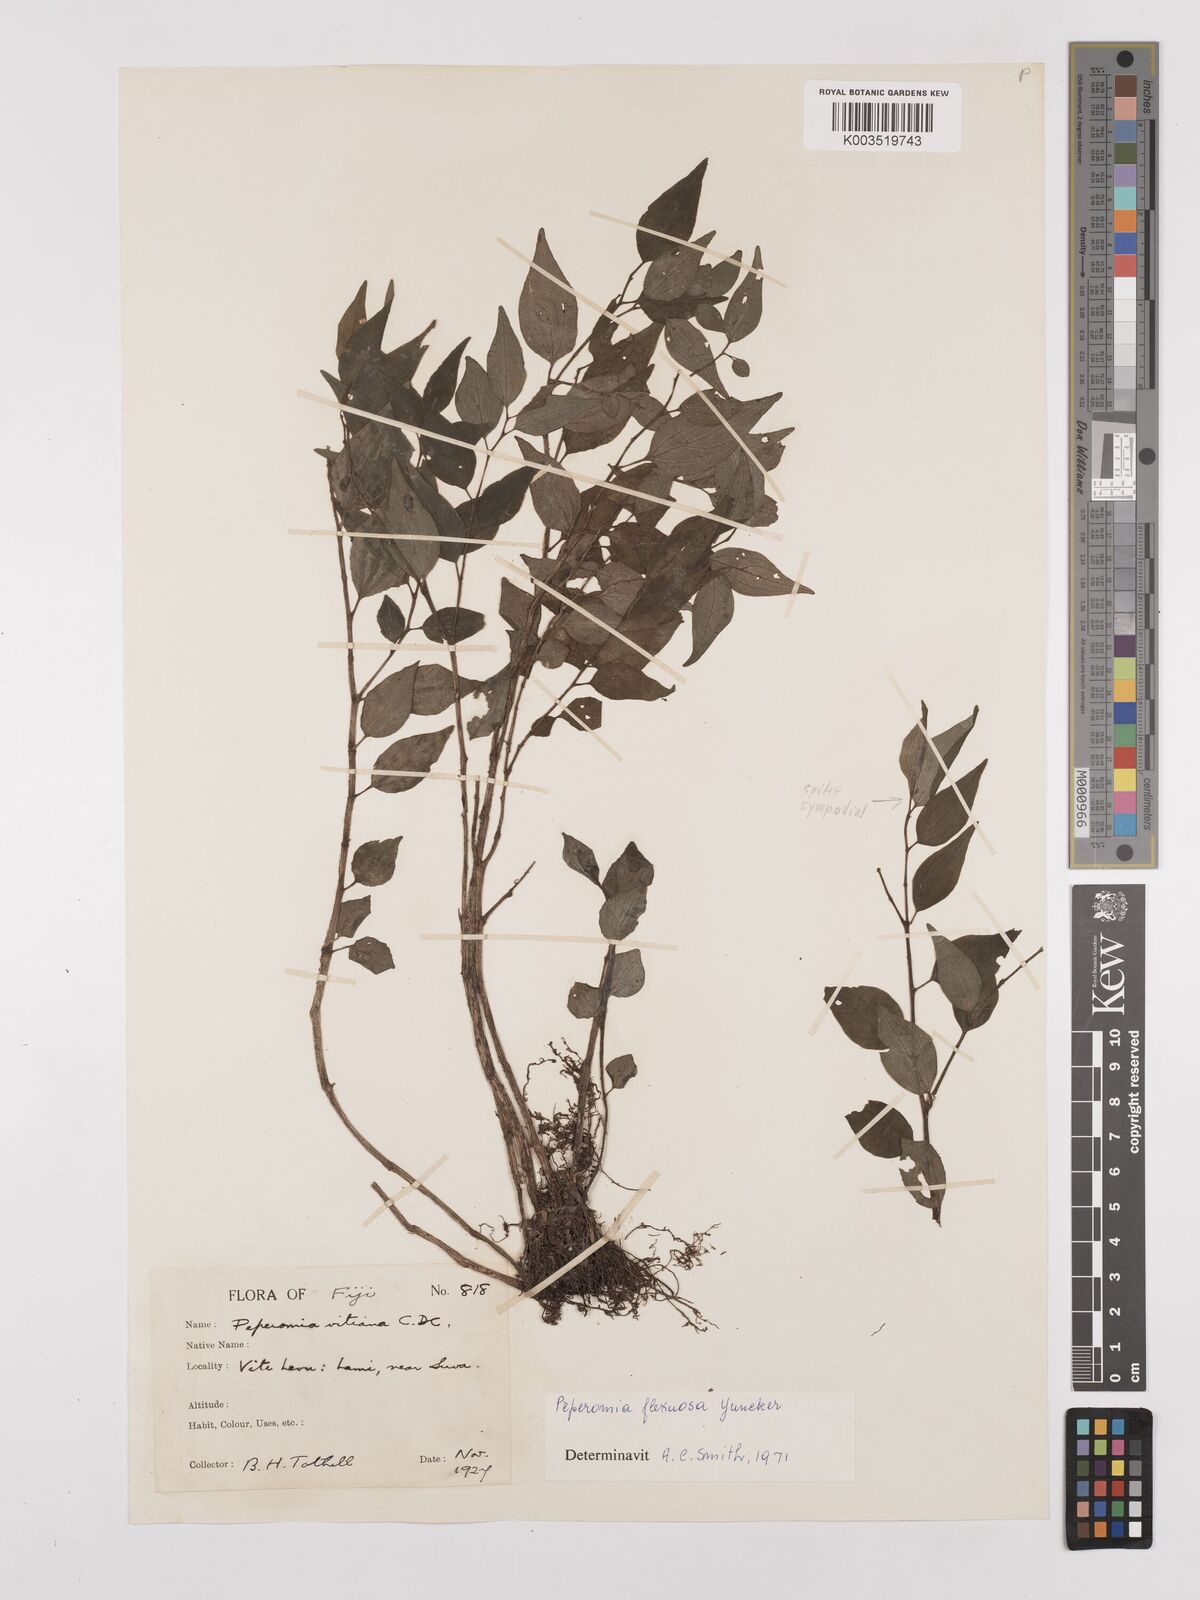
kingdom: Plantae
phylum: Tracheophyta
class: Magnoliopsida
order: Piperales
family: Piperaceae
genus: Peperomia
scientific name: Peperomia subroseispica
